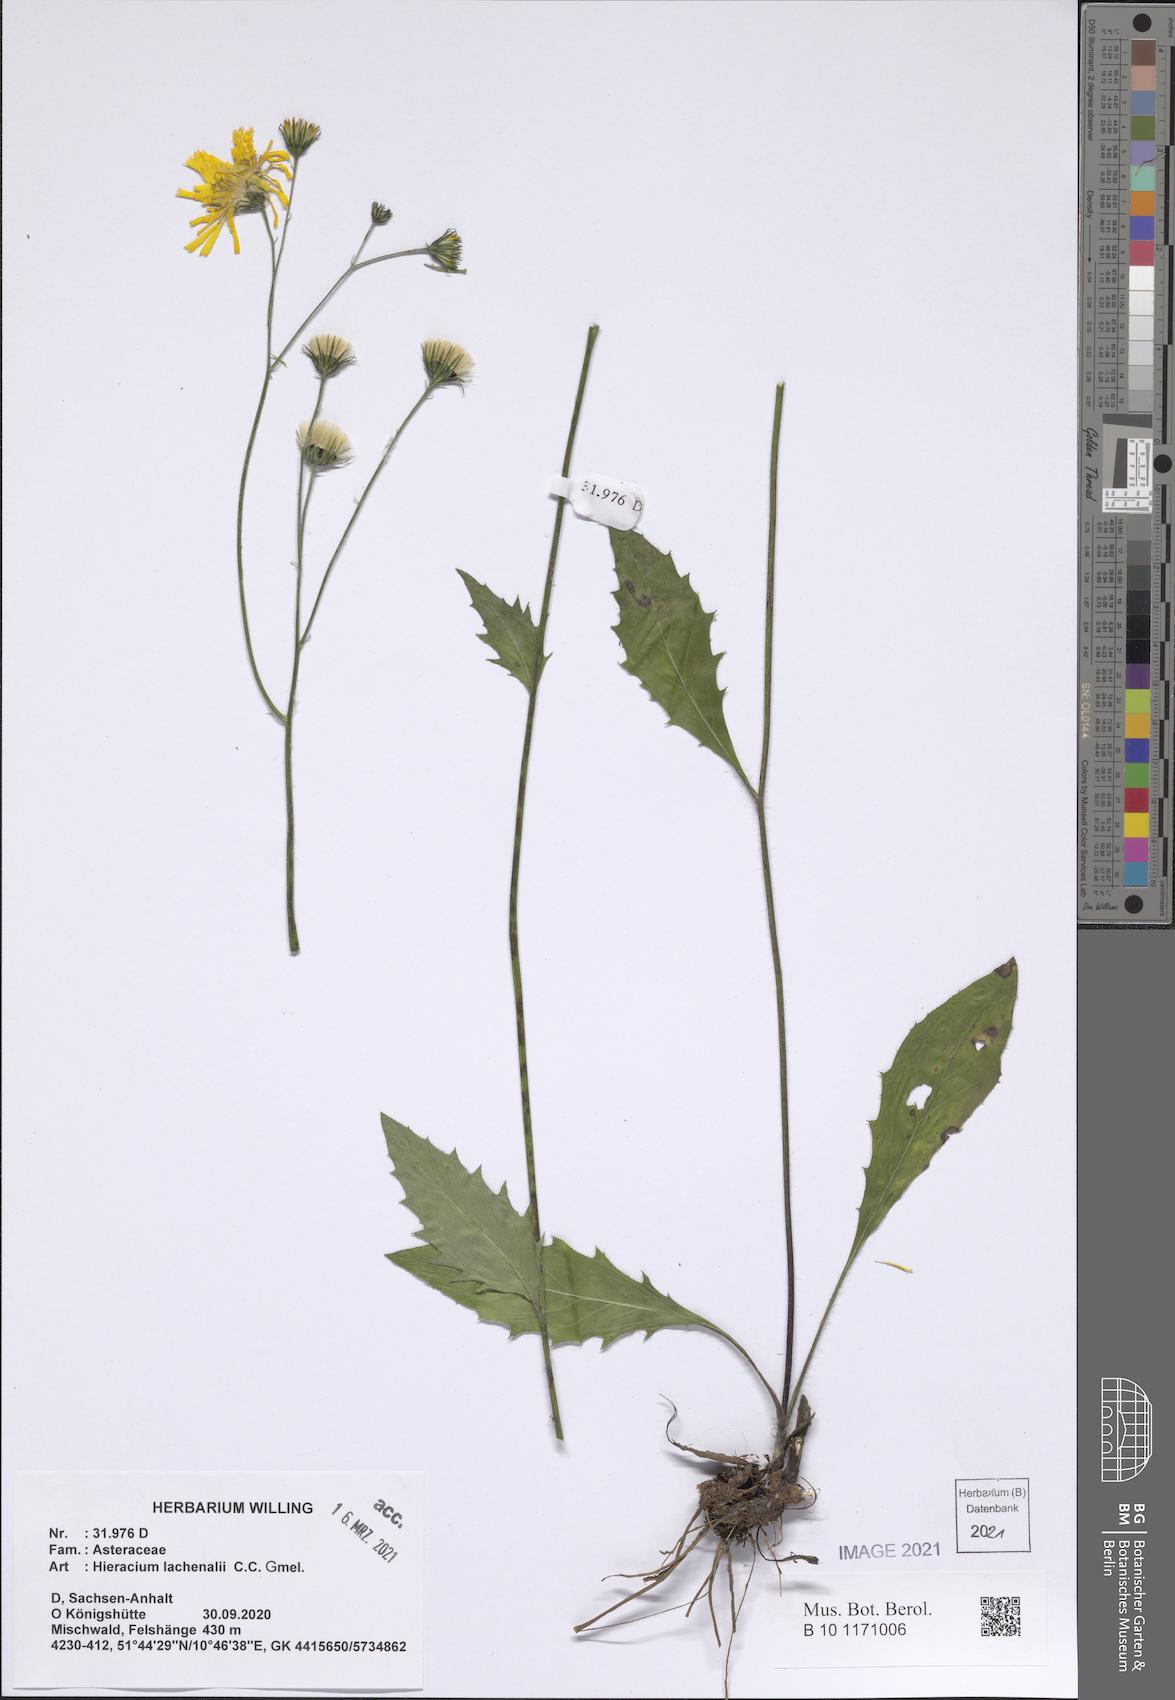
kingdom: Plantae
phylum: Tracheophyta
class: Magnoliopsida
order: Asterales
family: Asteraceae
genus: Hieracium
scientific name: Hieracium lachenalii
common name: Common hawkweed
